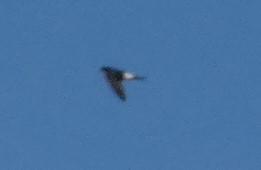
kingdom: Animalia
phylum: Chordata
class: Aves
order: Passeriformes
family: Hirundinidae
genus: Delichon
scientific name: Delichon urbicum
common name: Bysvale
